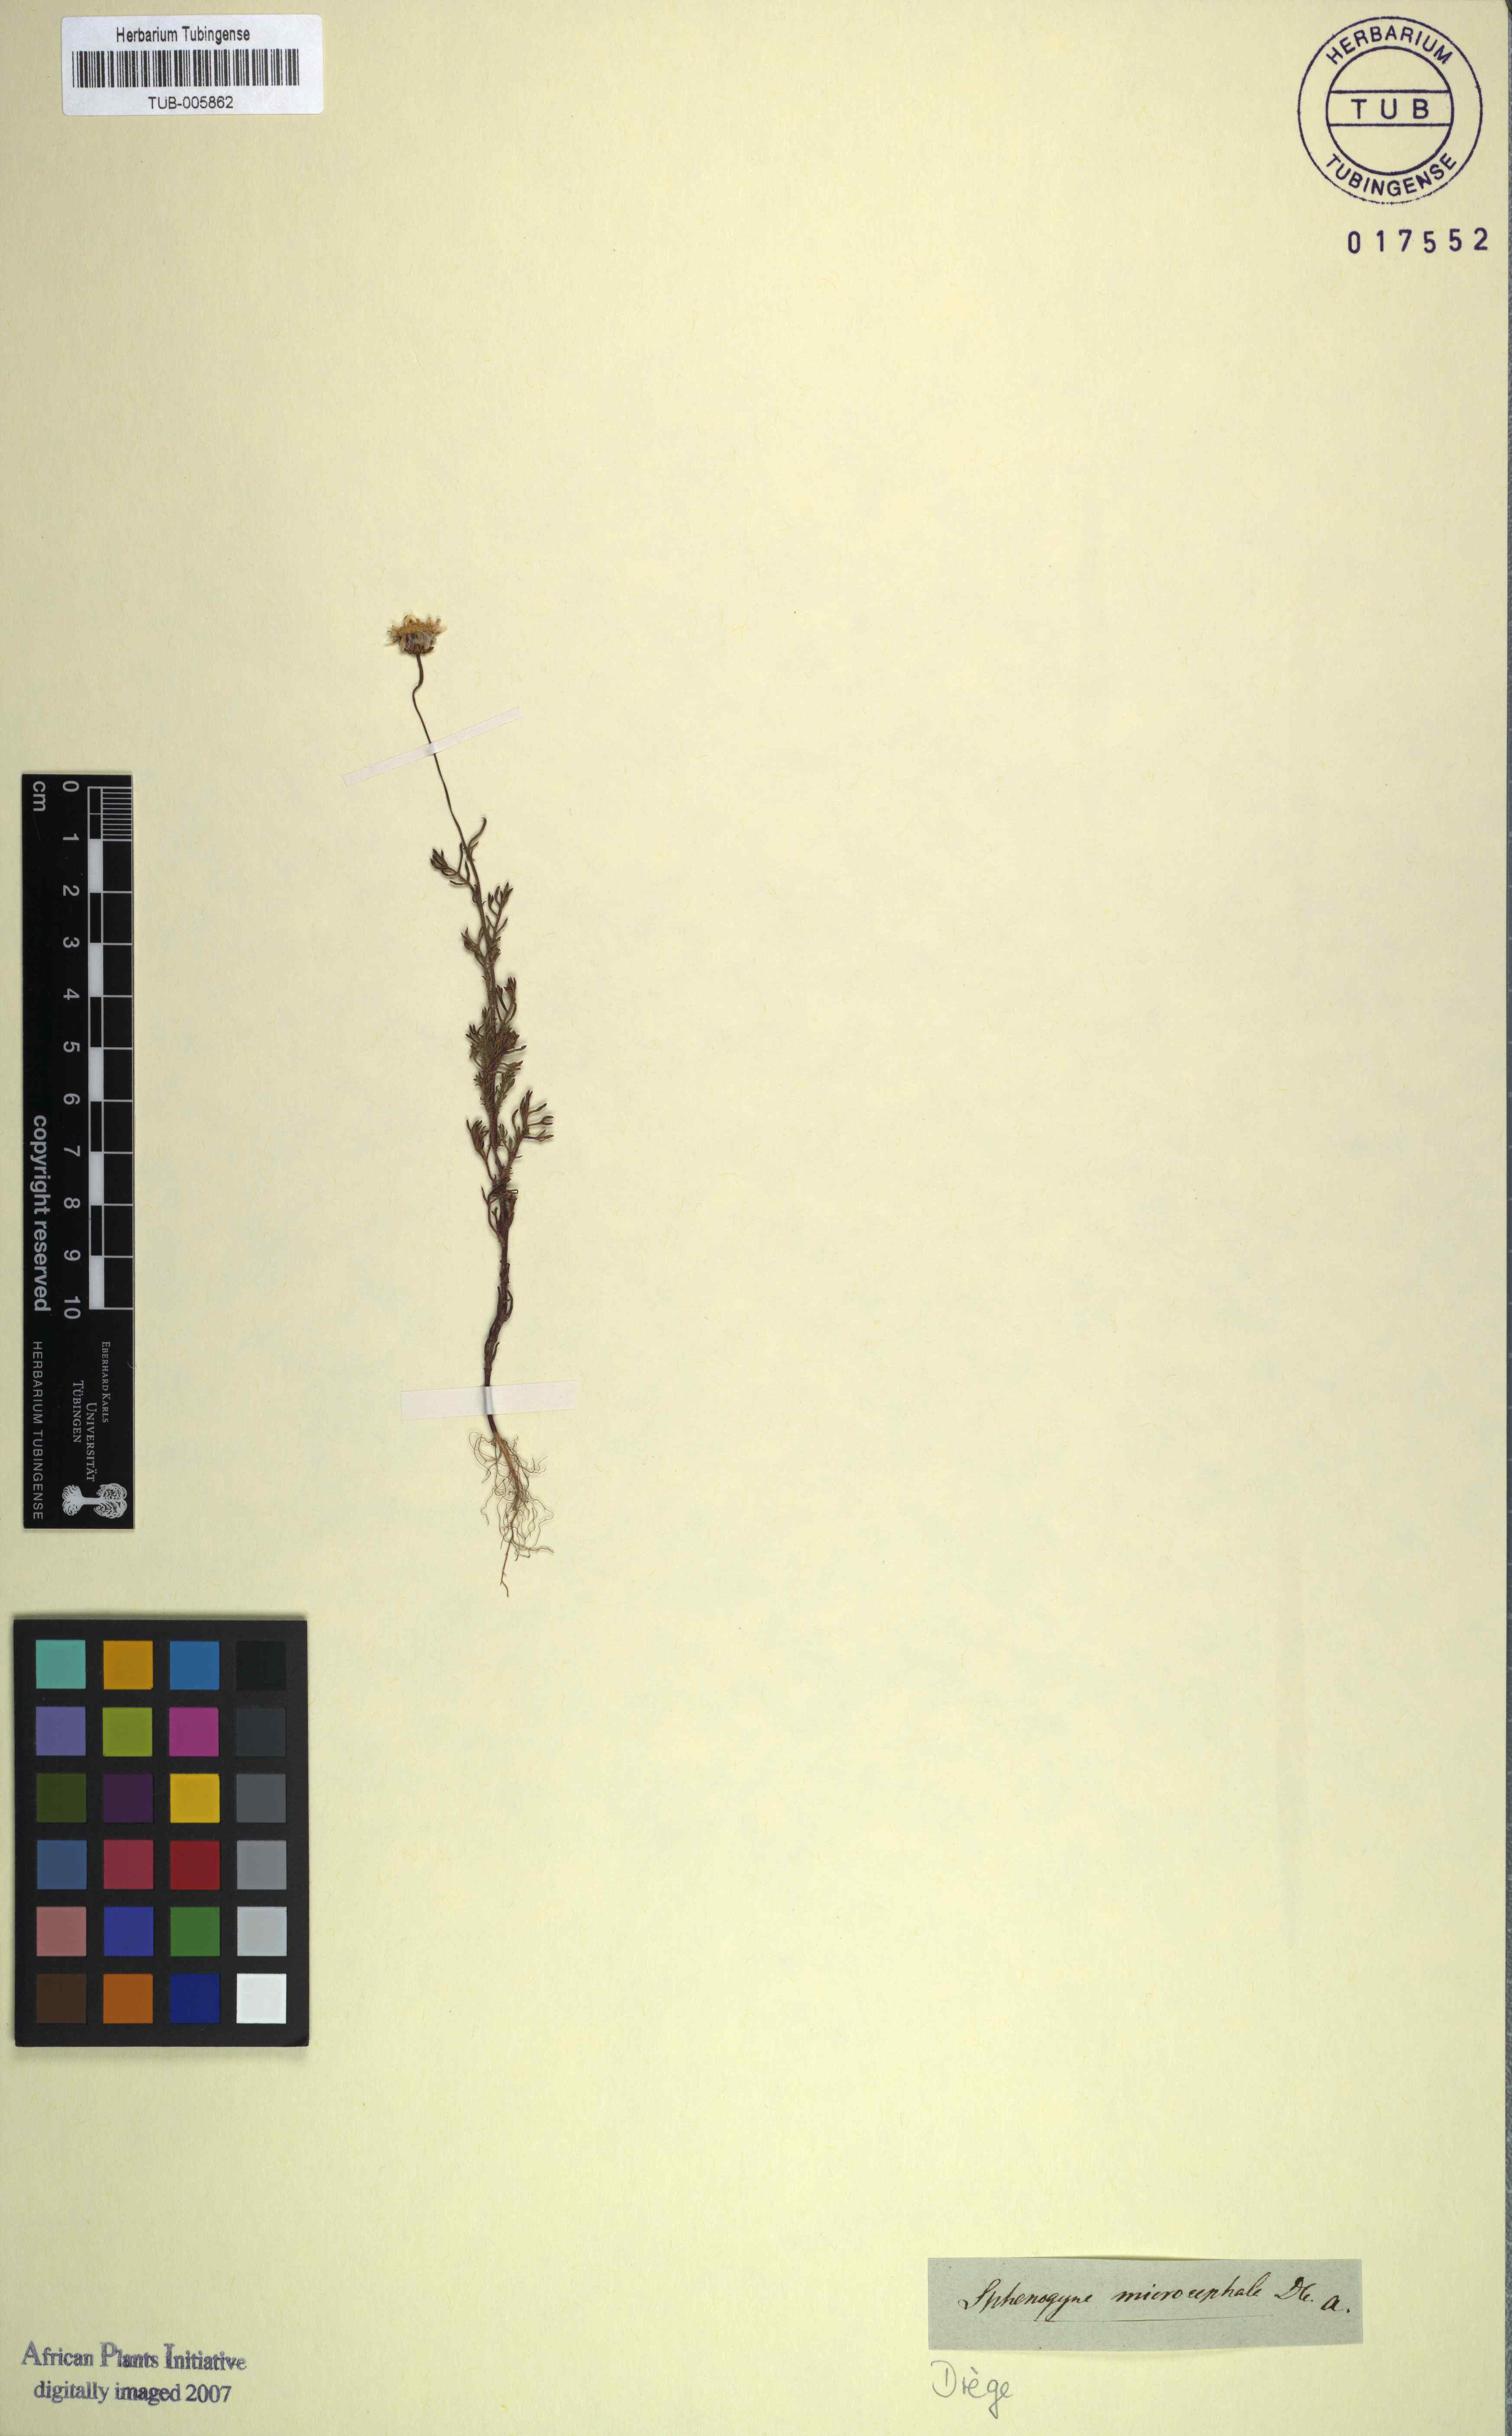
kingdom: Plantae
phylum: Tracheophyta
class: Magnoliopsida
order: Asterales
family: Asteraceae
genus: Ursinia
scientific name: Ursinia anthemoides
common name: Ursinia
